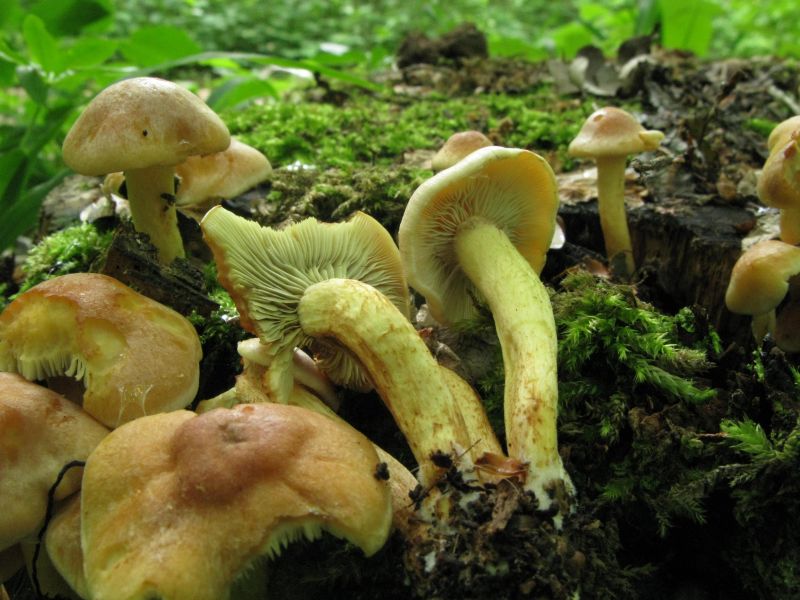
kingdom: Fungi
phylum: Basidiomycota
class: Agaricomycetes
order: Agaricales
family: Strophariaceae
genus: Hypholoma
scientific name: Hypholoma fasciculare
